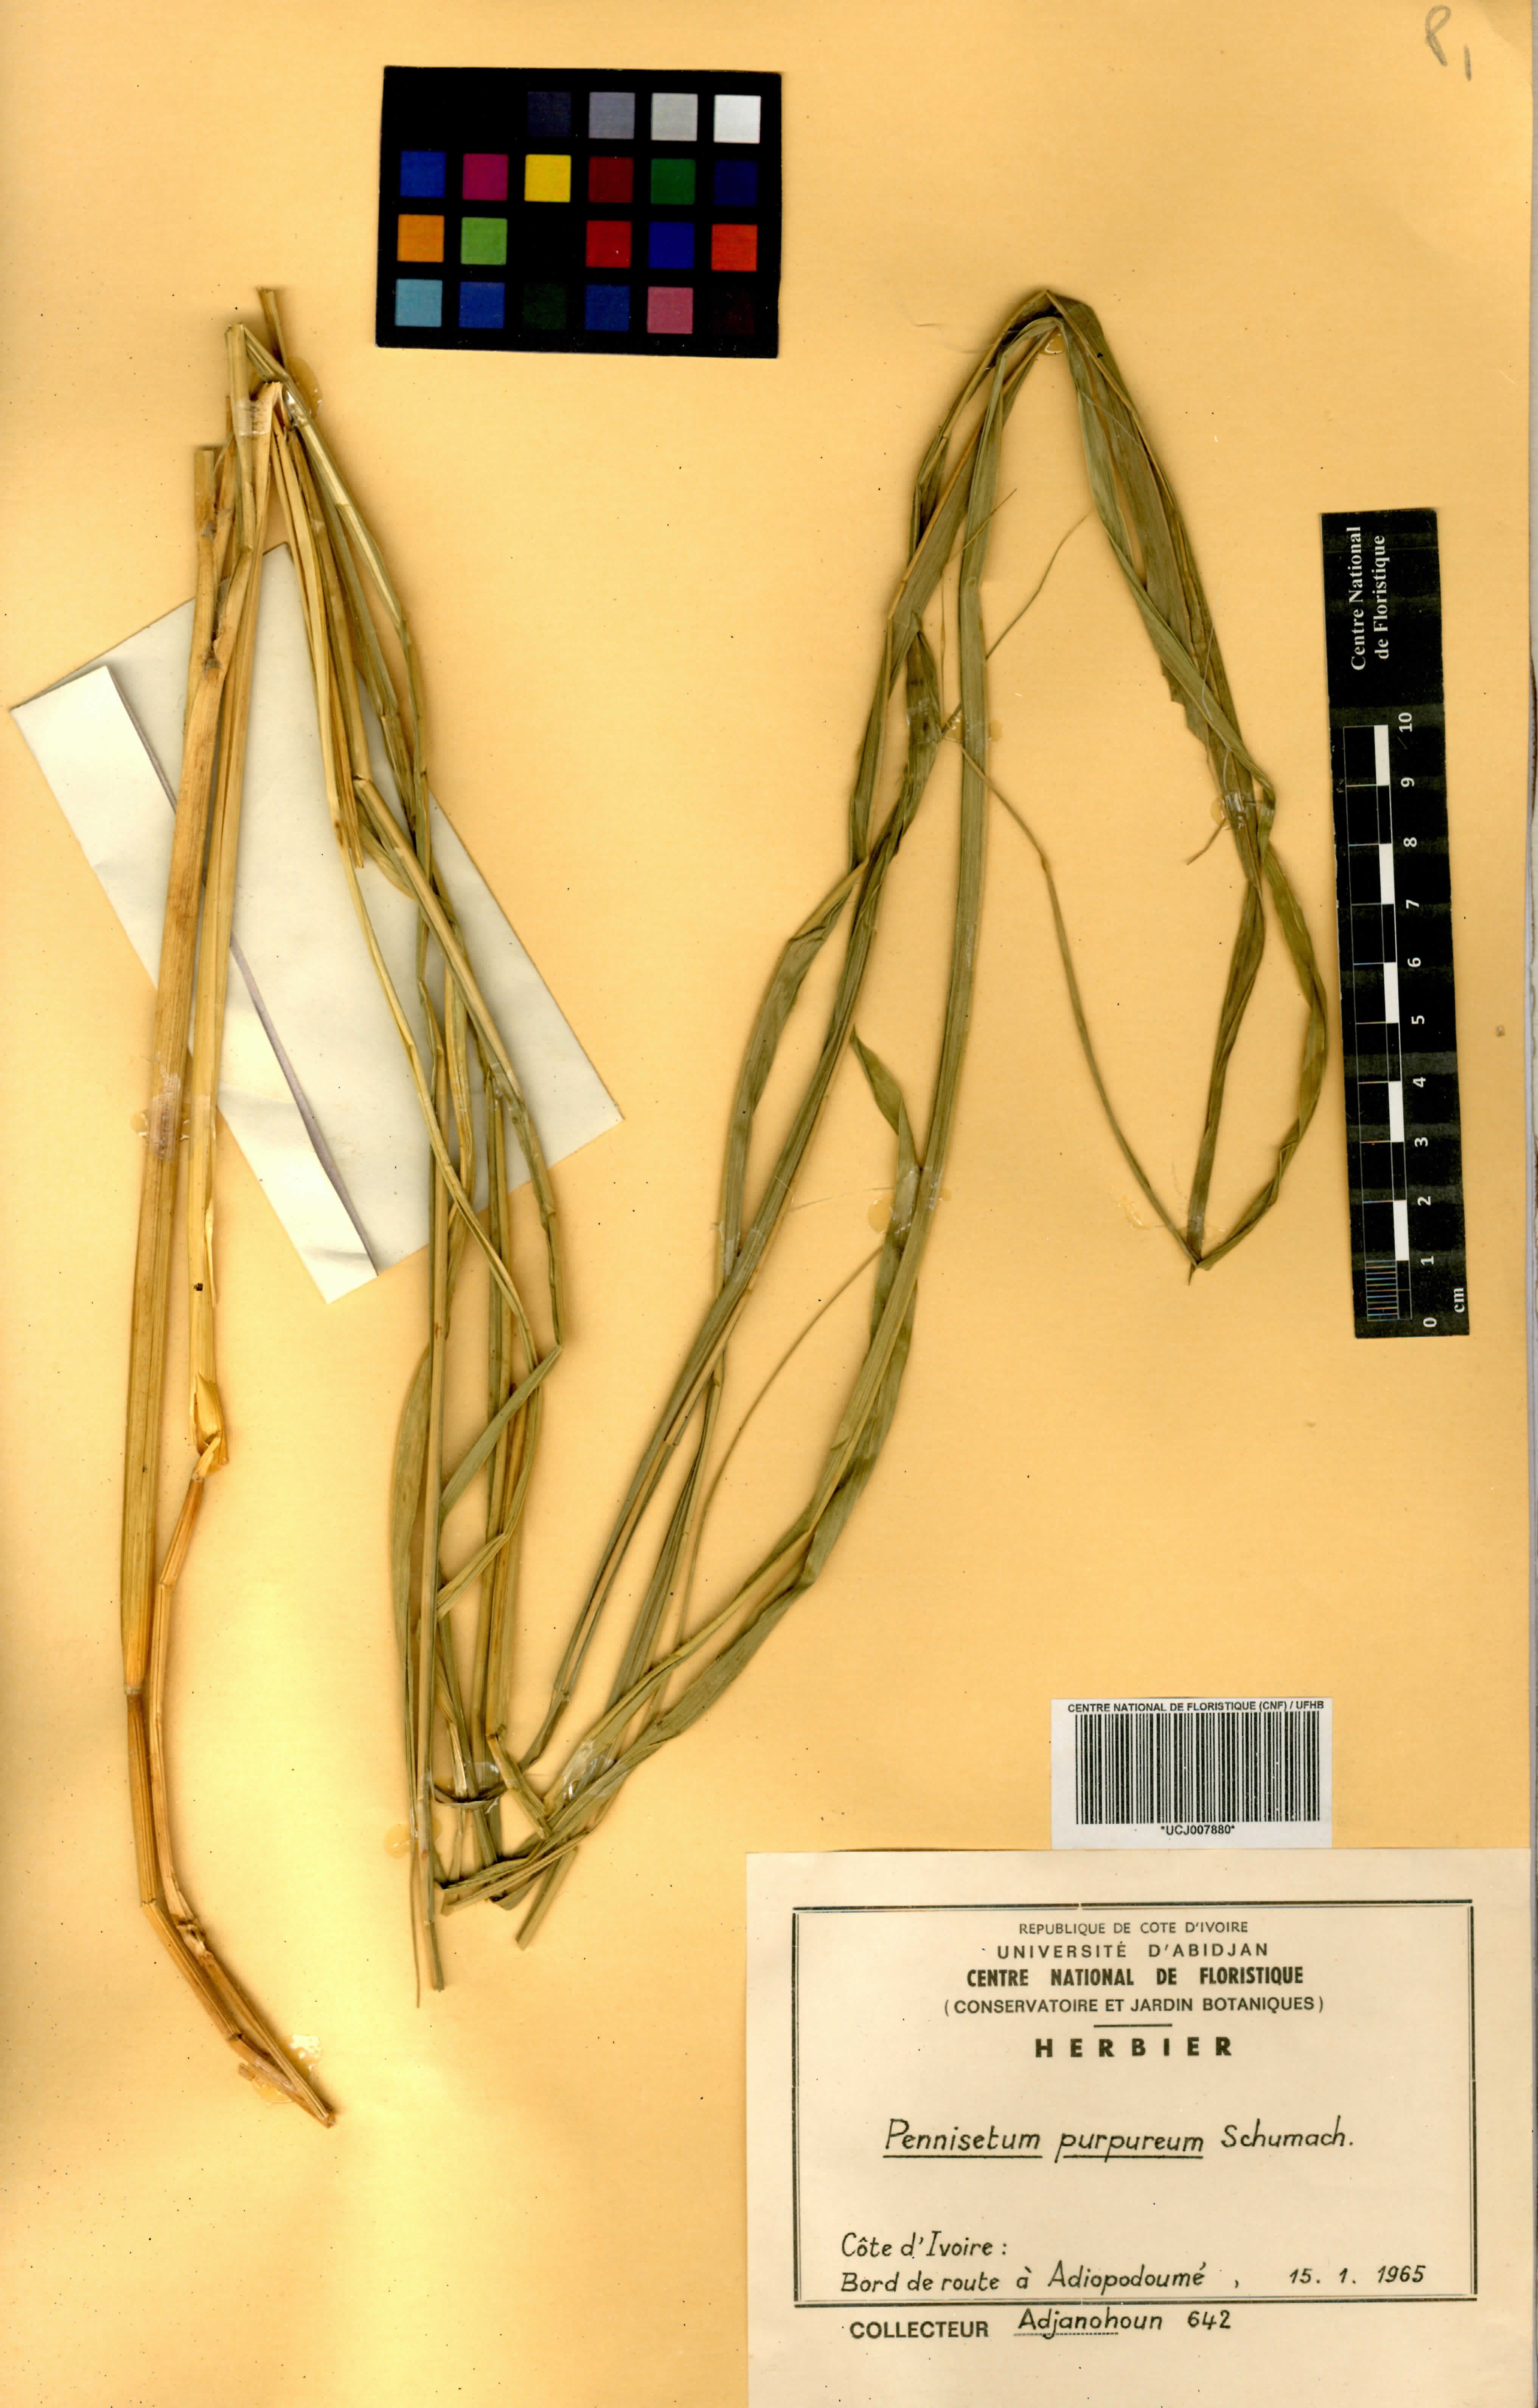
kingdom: Plantae
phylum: Tracheophyta
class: Liliopsida
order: Poales
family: Poaceae
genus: Cenchrus
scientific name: Cenchrus purpureus
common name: Elephant grass
